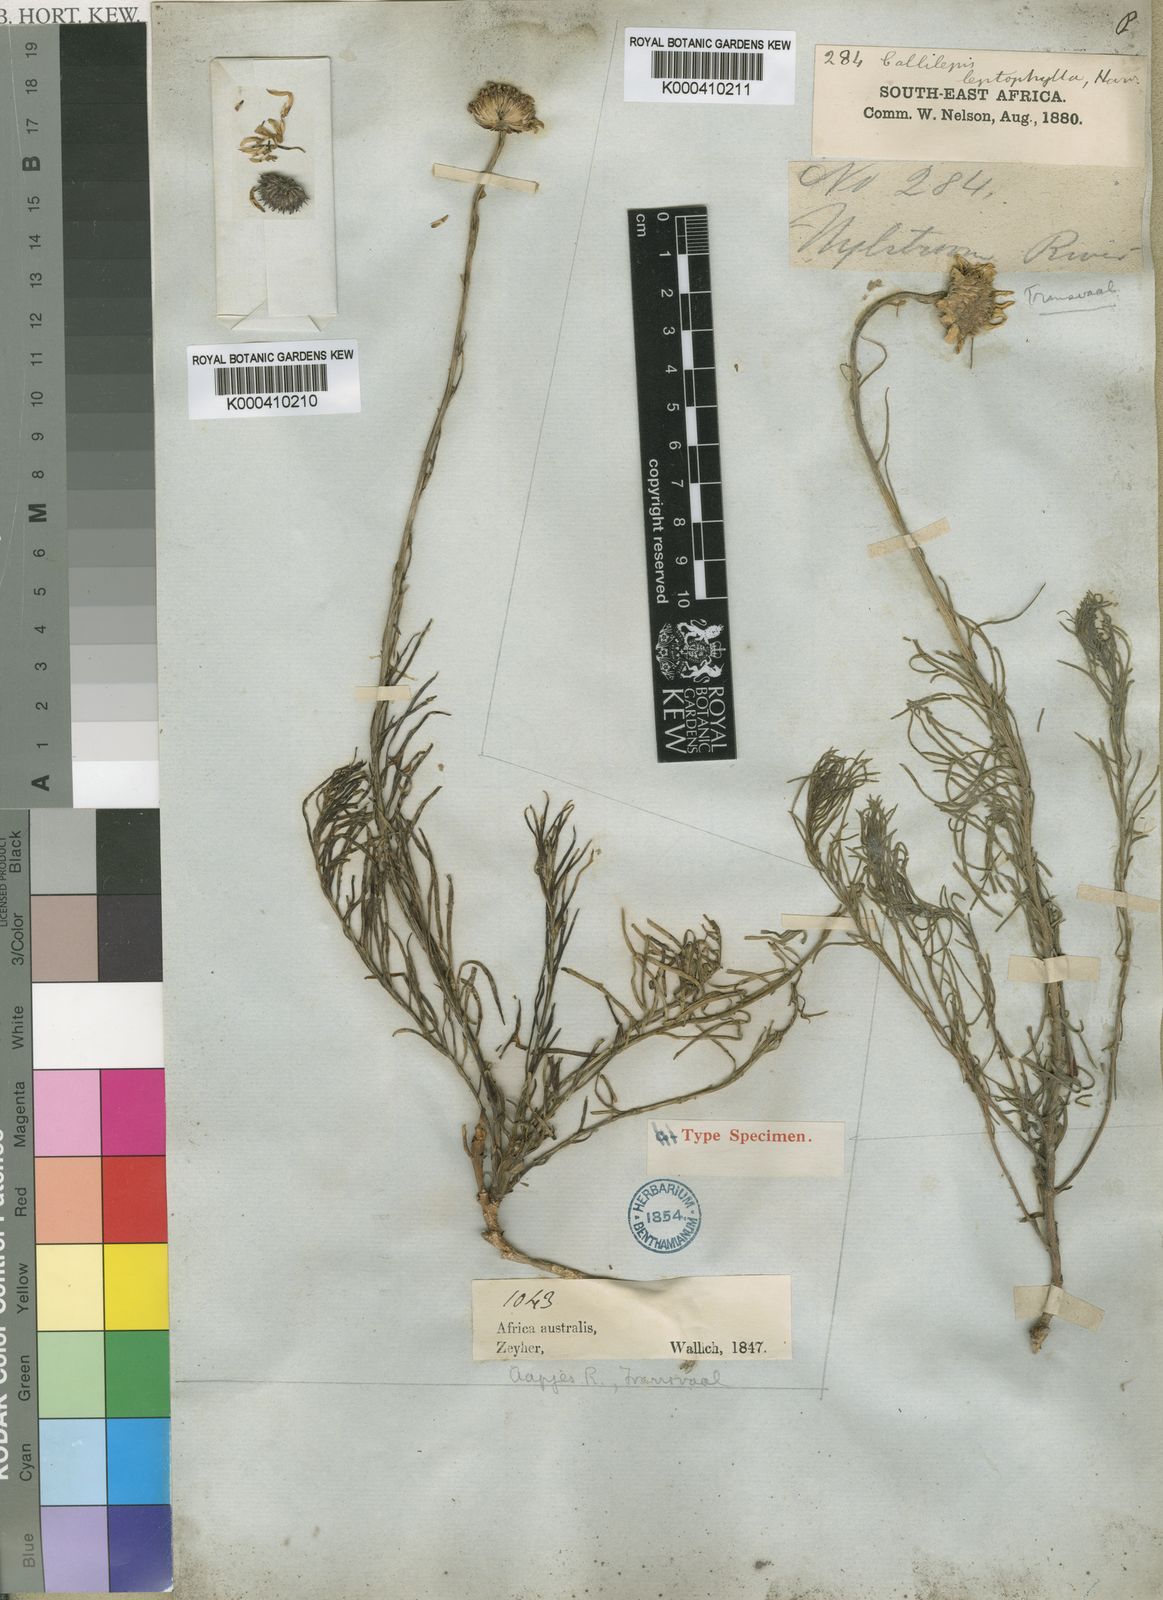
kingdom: Plantae
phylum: Tracheophyta
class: Magnoliopsida
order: Asterales
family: Asteraceae
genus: Callilepis
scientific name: Callilepis leptophylla
